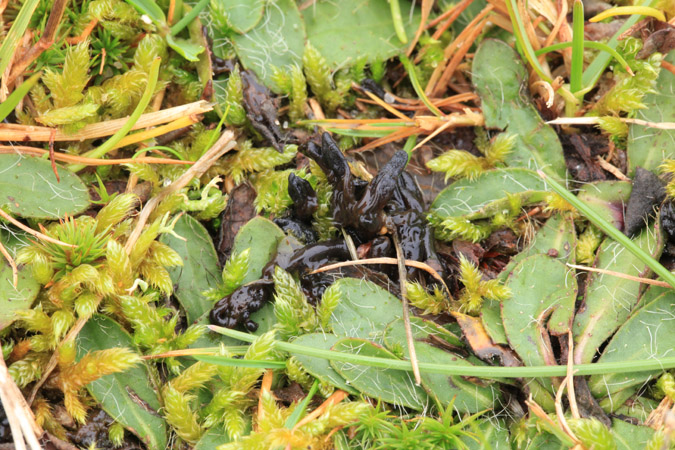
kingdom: Fungi
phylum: Ascomycota
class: Geoglossomycetes
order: Geoglossales
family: Geoglossaceae
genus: Hemileucoglossum
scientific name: Hemileucoglossum elongatum
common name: småsporet jordtunge
